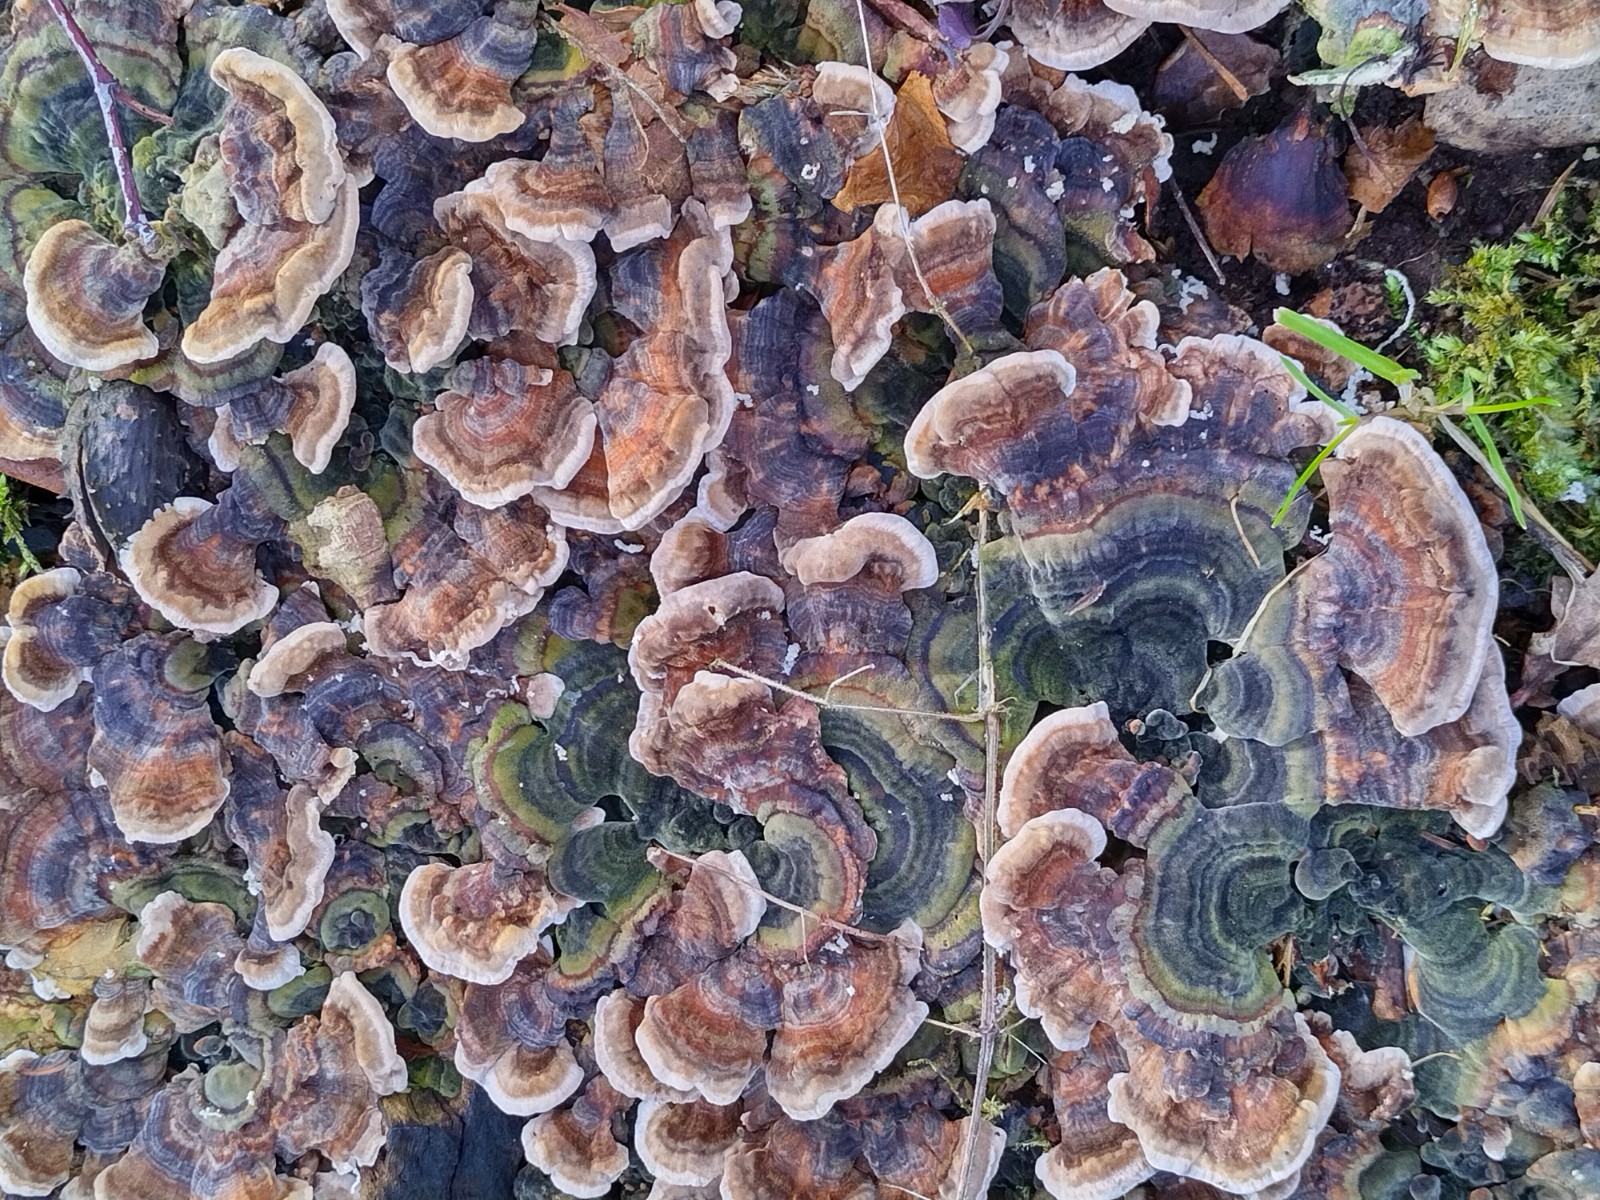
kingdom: Fungi
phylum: Basidiomycota
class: Agaricomycetes
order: Polyporales
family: Polyporaceae
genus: Trametes
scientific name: Trametes versicolor
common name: broget læderporesvamp
